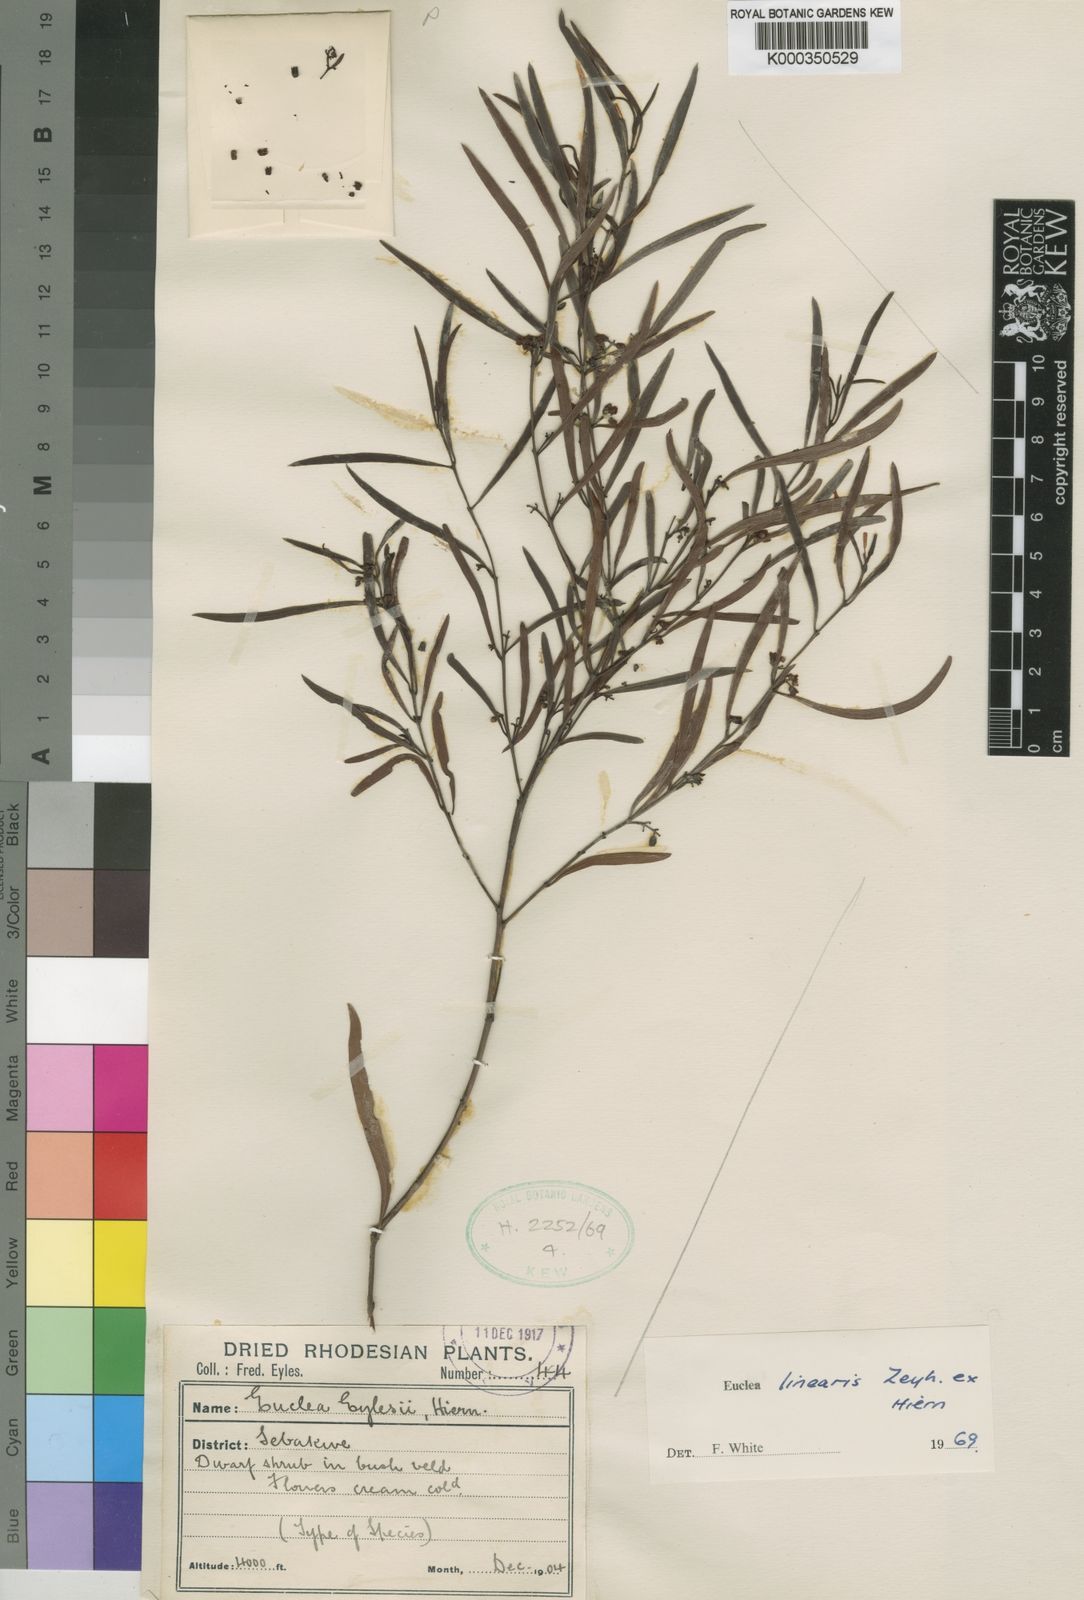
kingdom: Plantae
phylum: Tracheophyta
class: Magnoliopsida
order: Ericales
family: Ebenaceae
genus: Euclea
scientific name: Euclea
